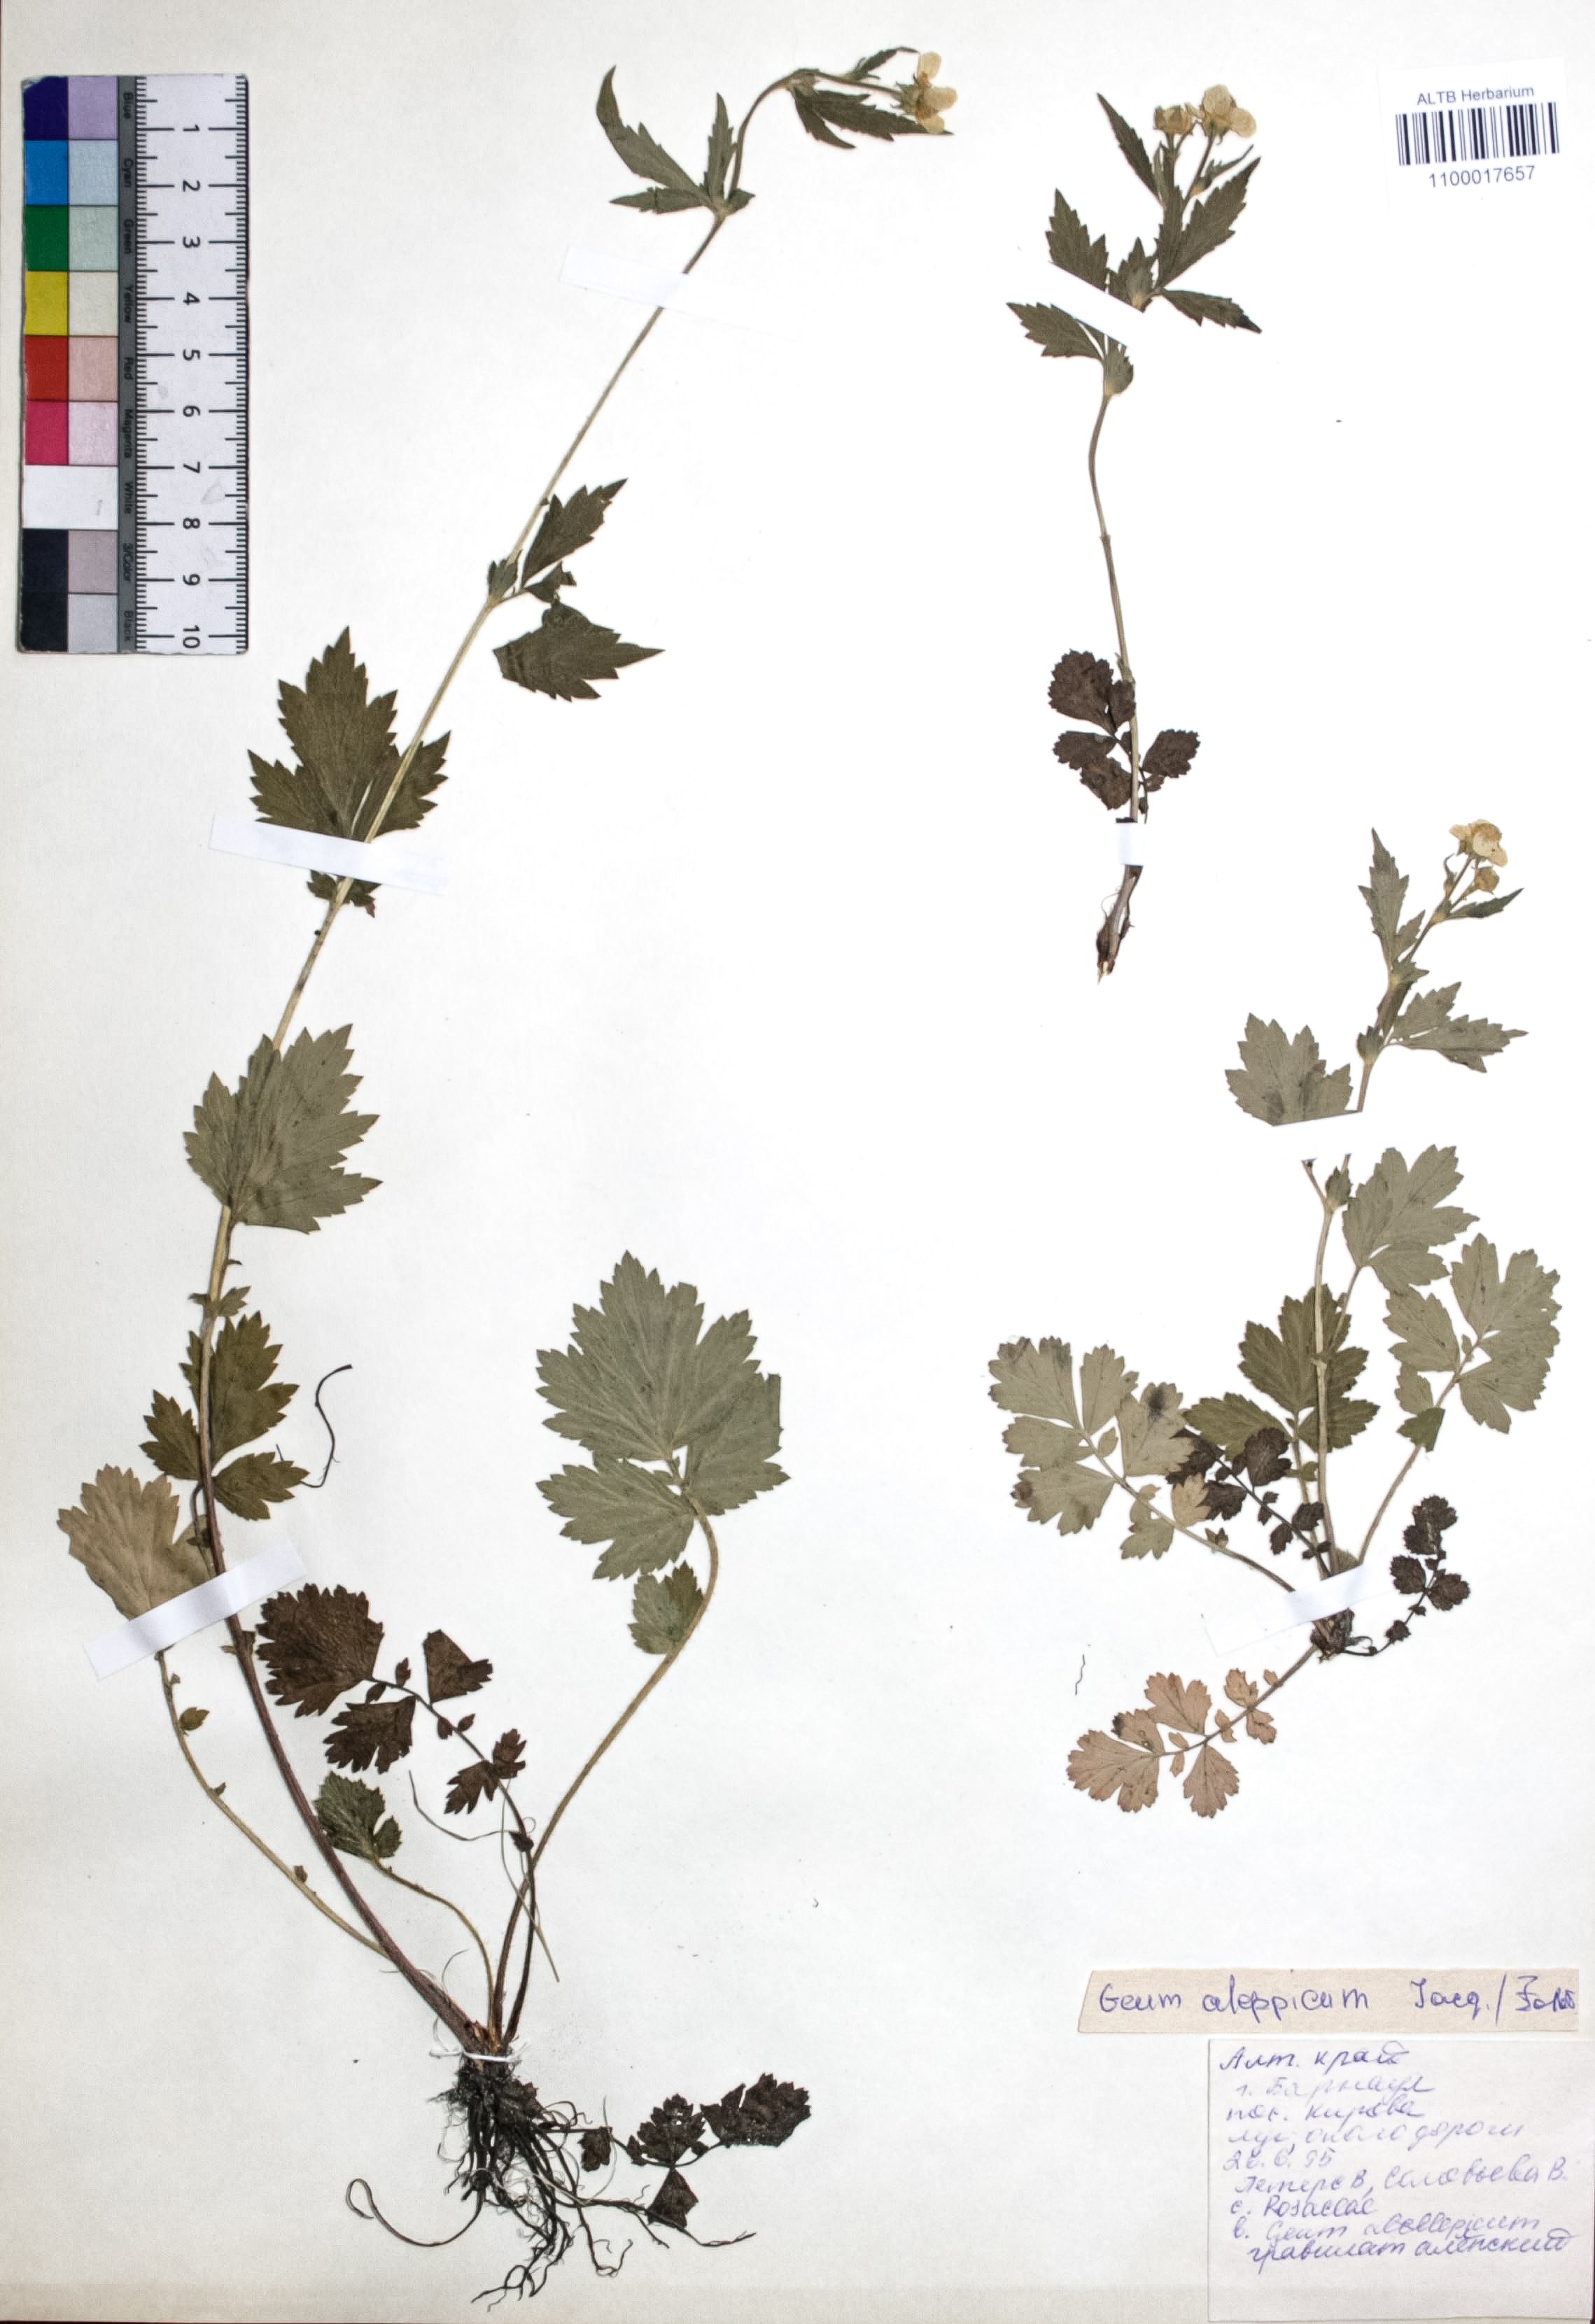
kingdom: Plantae
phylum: Tracheophyta
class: Magnoliopsida
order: Rosales
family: Rosaceae
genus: Geum
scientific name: Geum aleppicum
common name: Yellow avens
